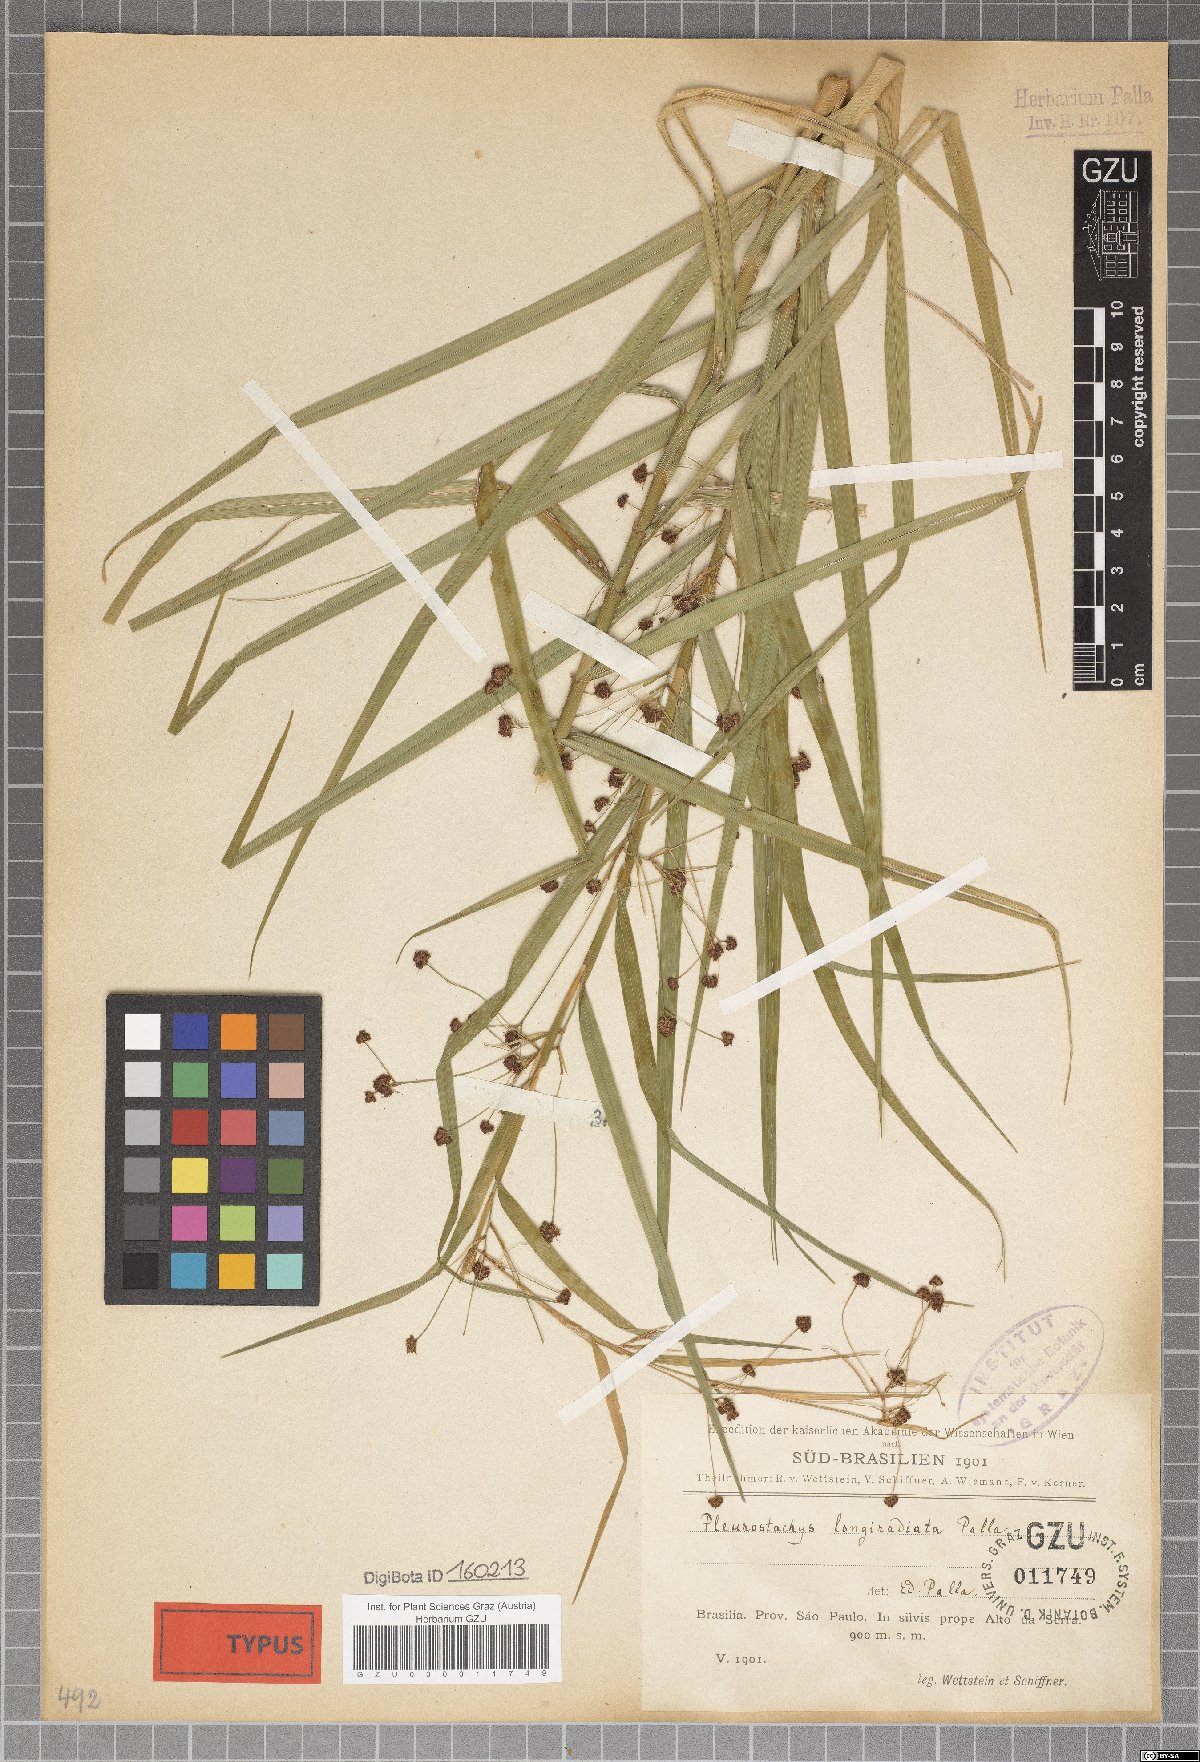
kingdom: Plantae
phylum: Tracheophyta
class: Liliopsida
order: Poales
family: Cyperaceae
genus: Rhynchospora
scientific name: Rhynchospora foliosa
